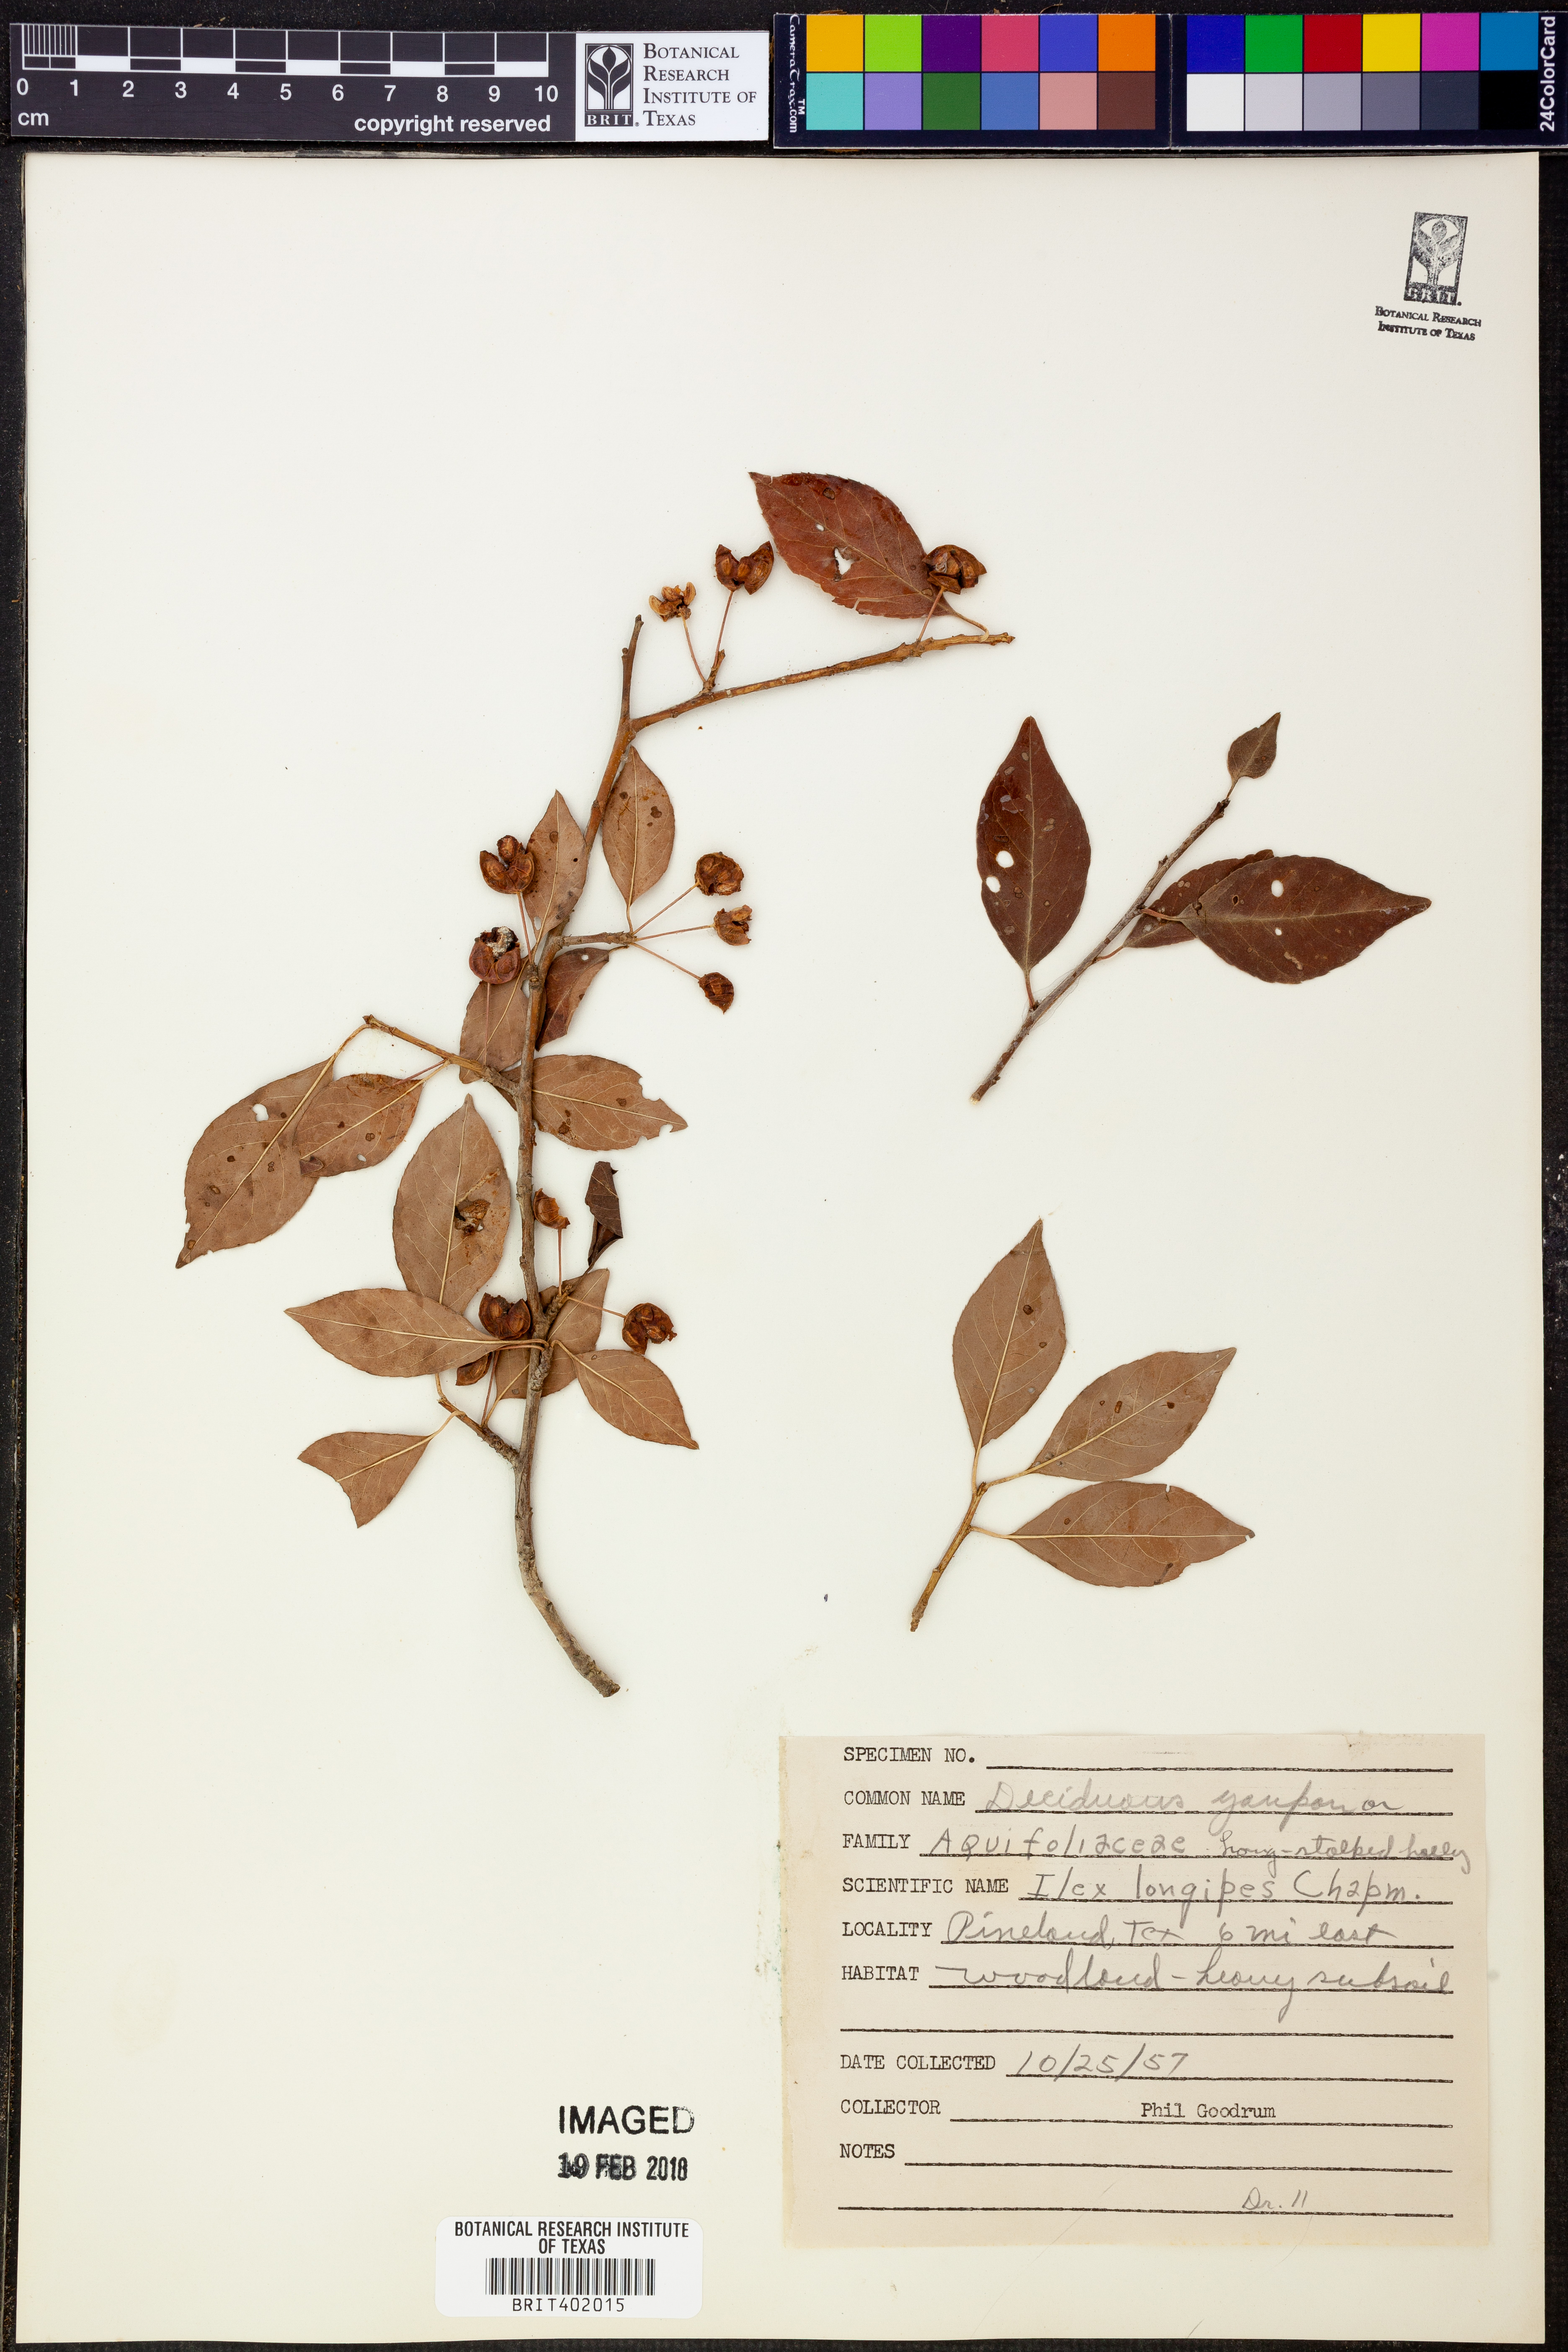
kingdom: Plantae
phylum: Tracheophyta
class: Magnoliopsida
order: Aquifoliales
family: Aquifoliaceae
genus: Ilex
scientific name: Ilex longipes
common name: Georgia holly
